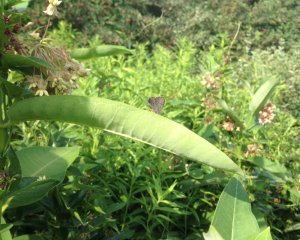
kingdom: Animalia
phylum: Arthropoda
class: Insecta
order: Lepidoptera
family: Lycaenidae
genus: Satyrium
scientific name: Satyrium calanus
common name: Banded Hairstreak
